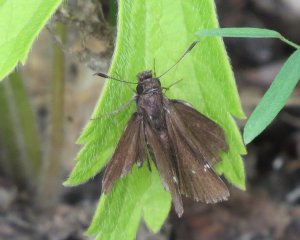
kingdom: Animalia
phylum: Arthropoda
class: Insecta
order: Lepidoptera
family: Hesperiidae
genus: Autochton
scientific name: Autochton
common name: Northern Cloudywing
